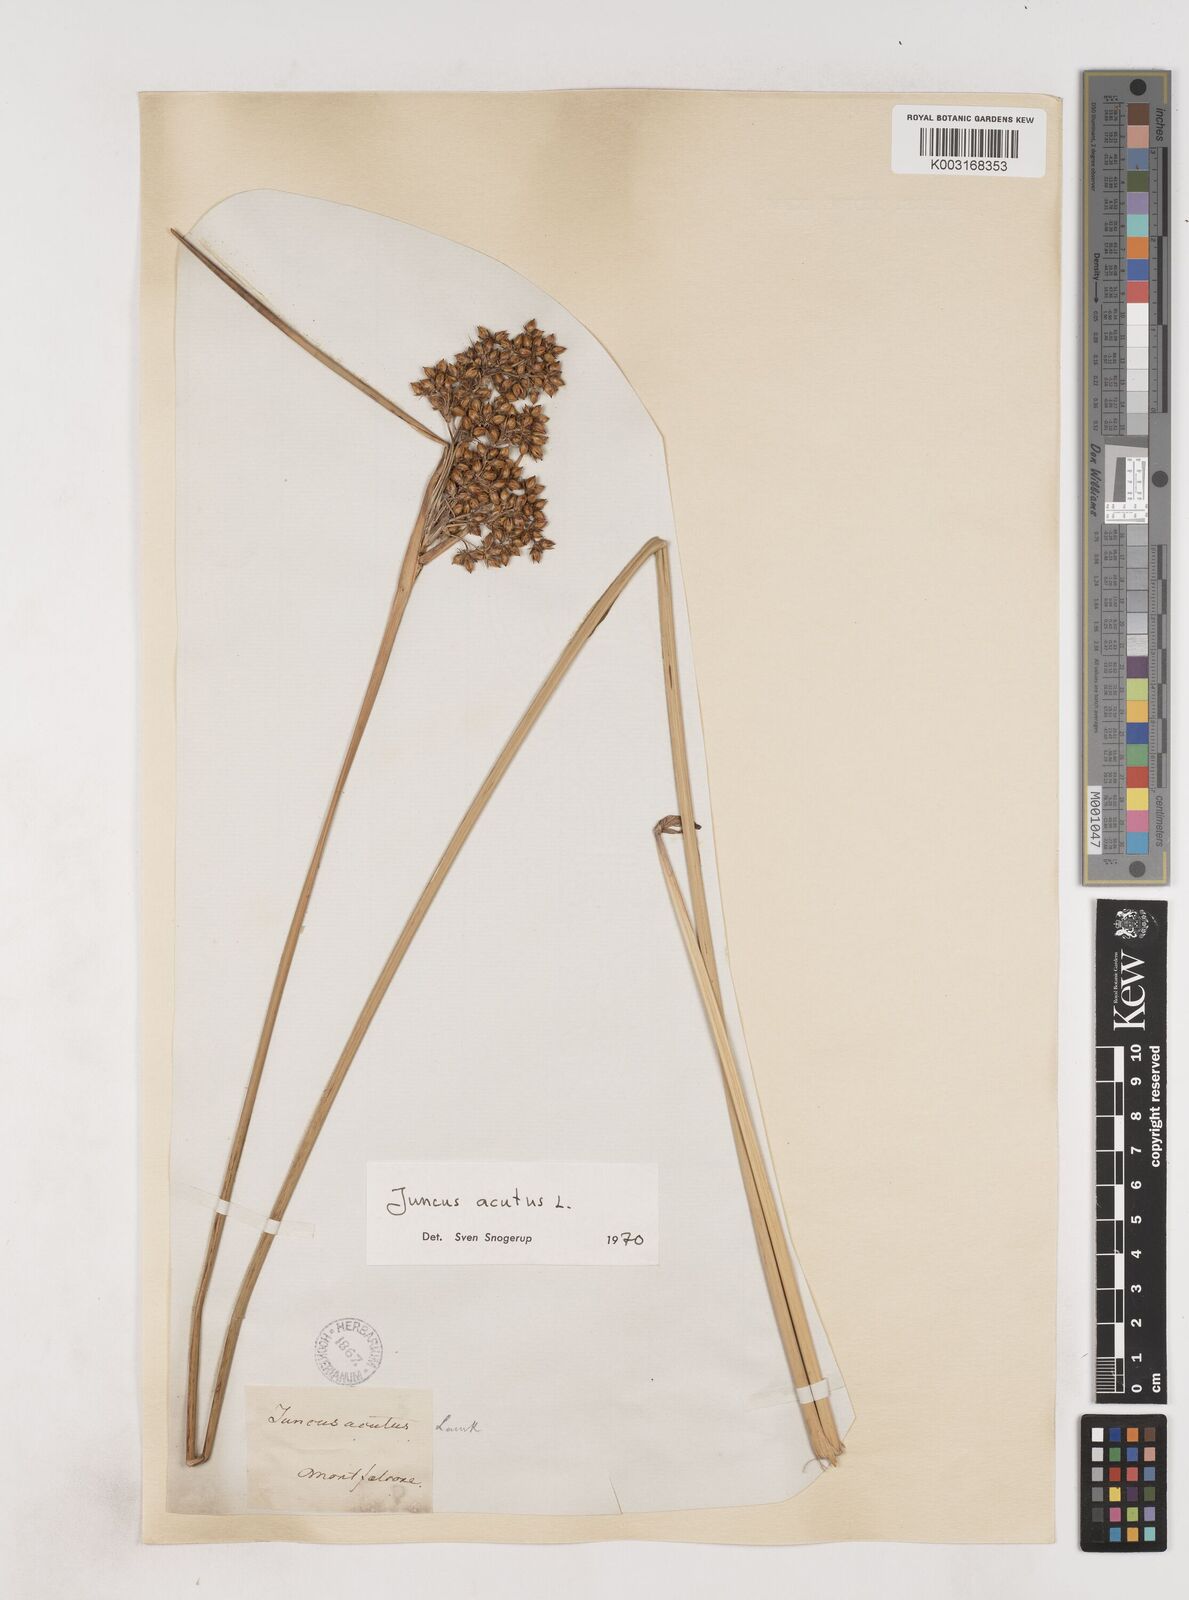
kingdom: Plantae
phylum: Tracheophyta
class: Liliopsida
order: Poales
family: Juncaceae
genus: Juncus
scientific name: Juncus acutus
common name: Sharp rush
